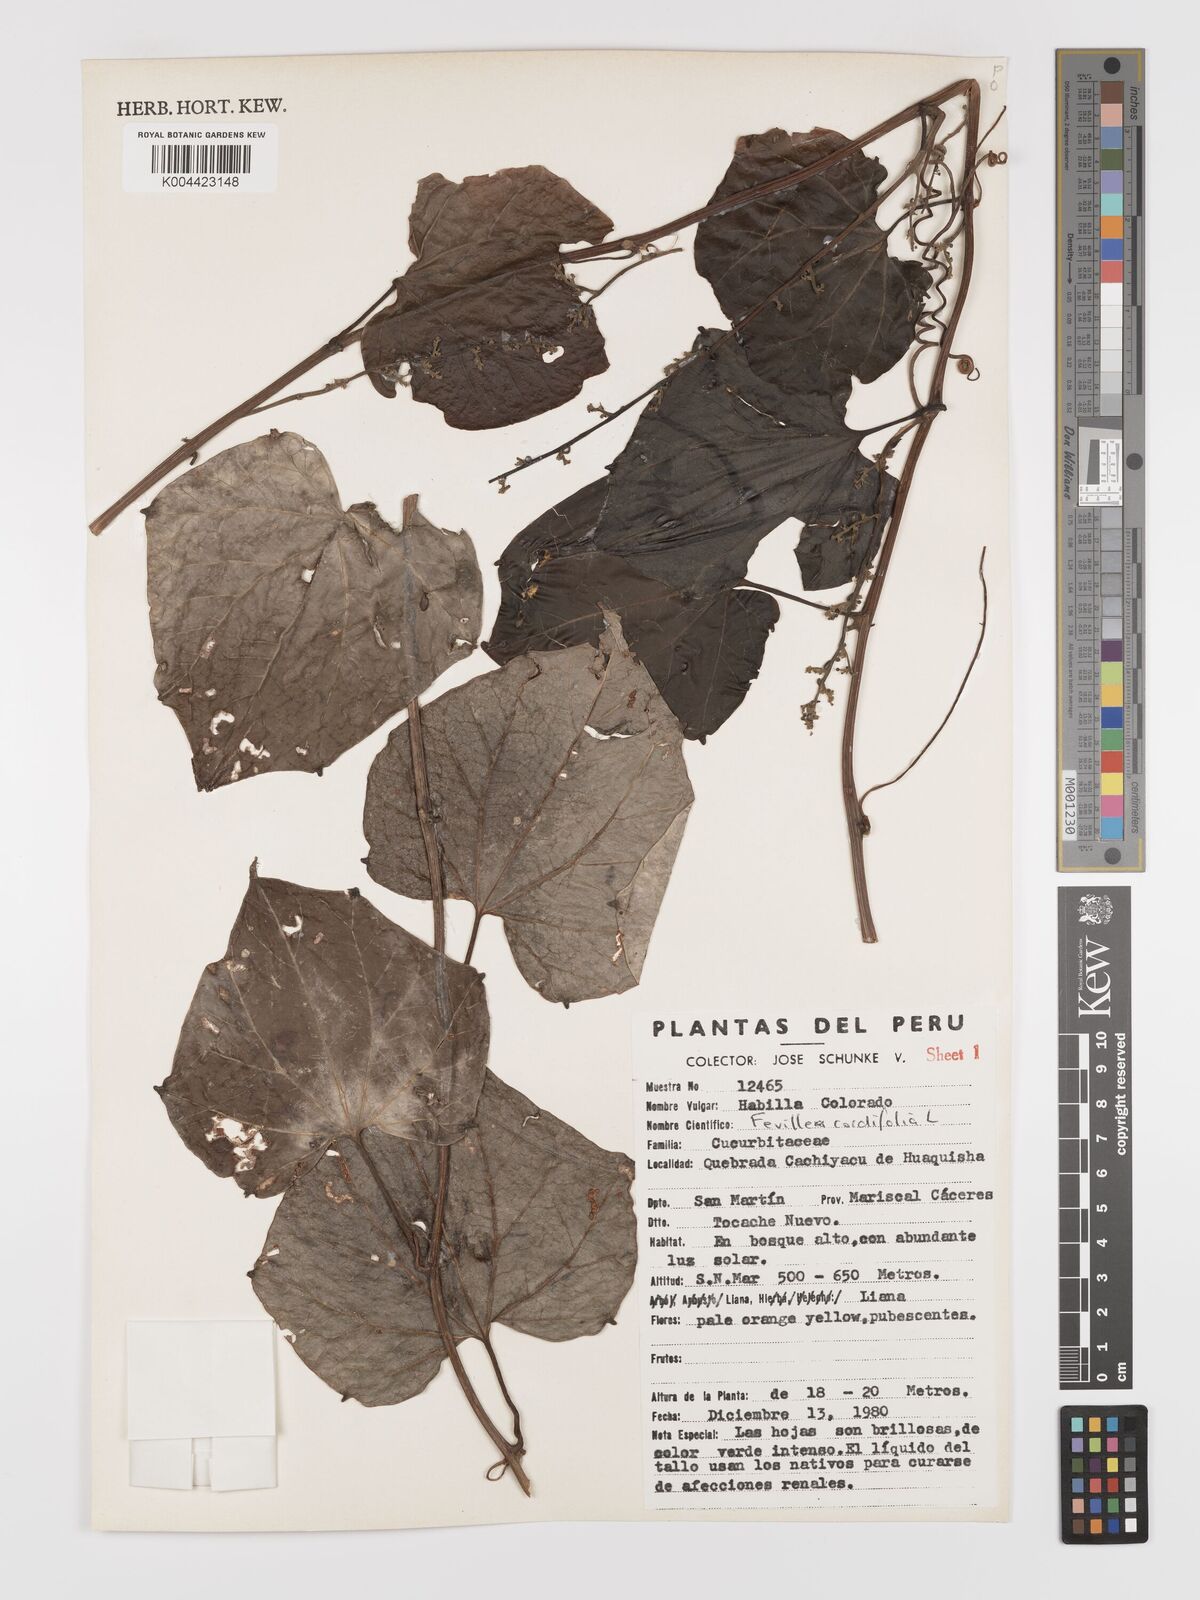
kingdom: Plantae
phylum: Tracheophyta
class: Magnoliopsida
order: Cucurbitales
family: Cucurbitaceae
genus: Fevillea
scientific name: Fevillea
